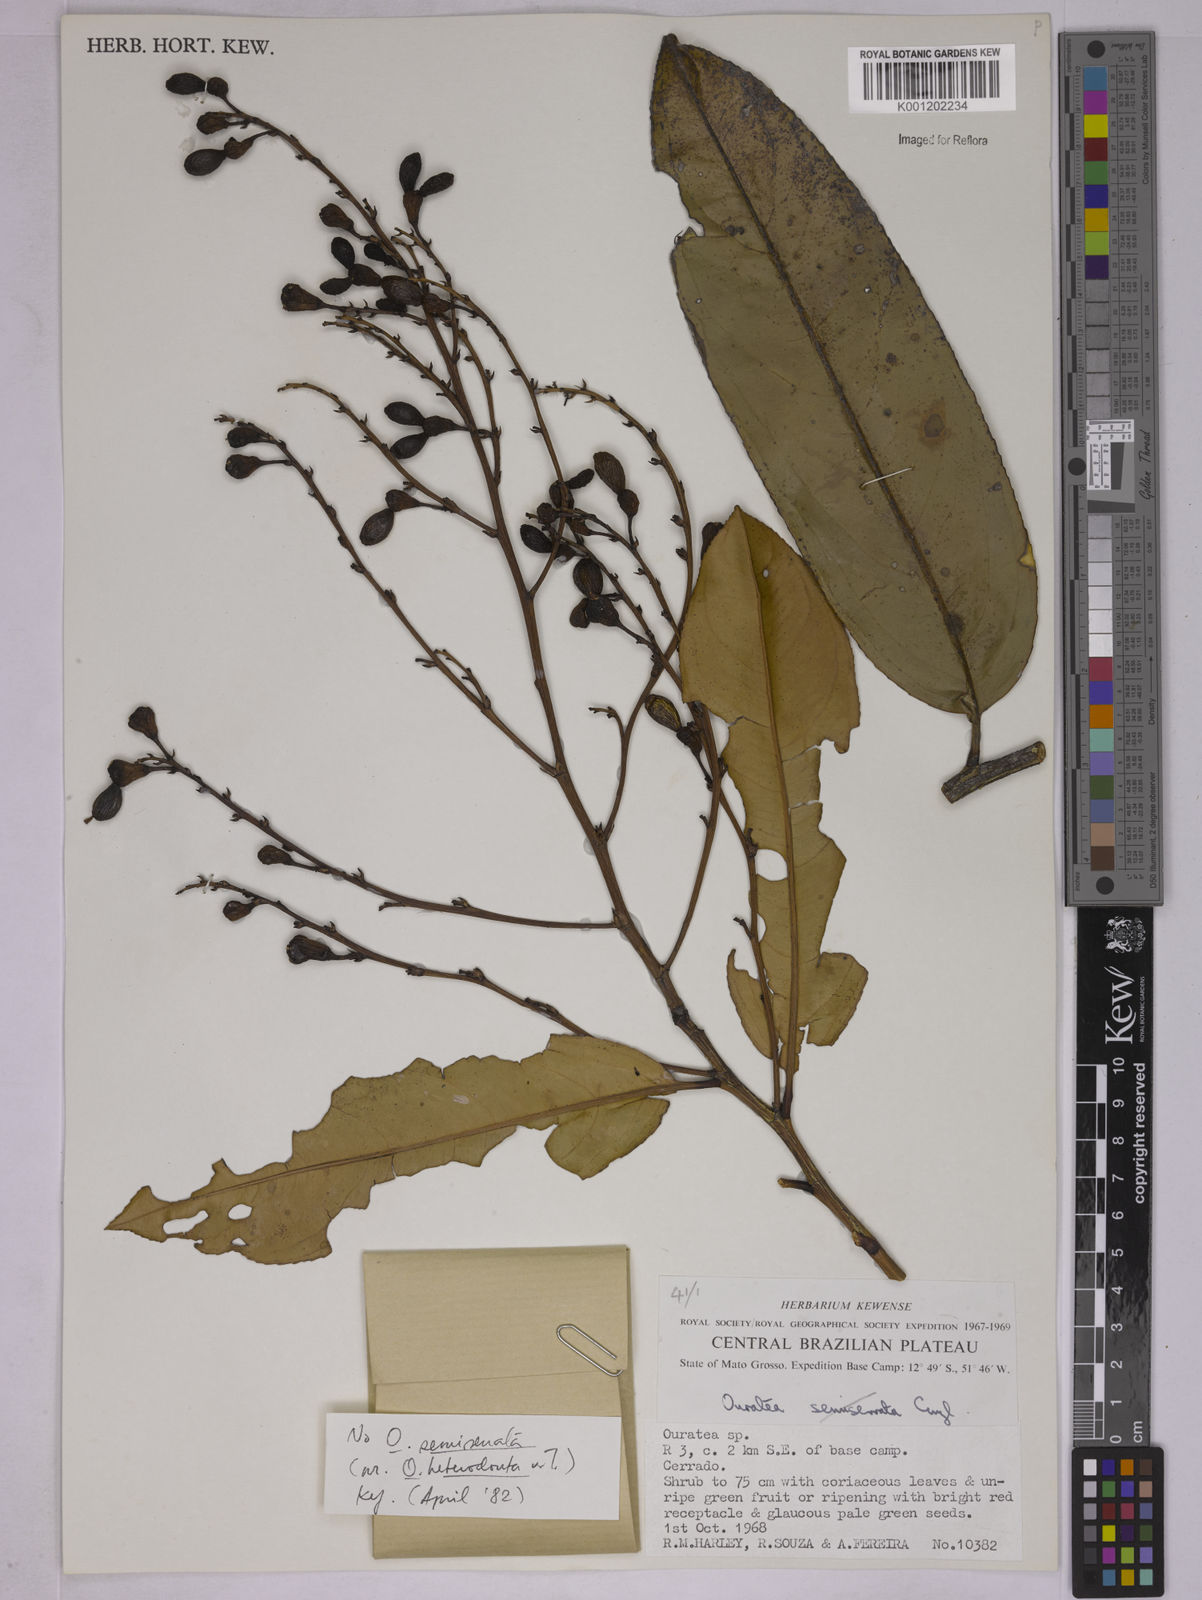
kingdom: Plantae
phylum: Tracheophyta
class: Magnoliopsida
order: Malpighiales
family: Ochnaceae
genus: Ouratea
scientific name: Ouratea
